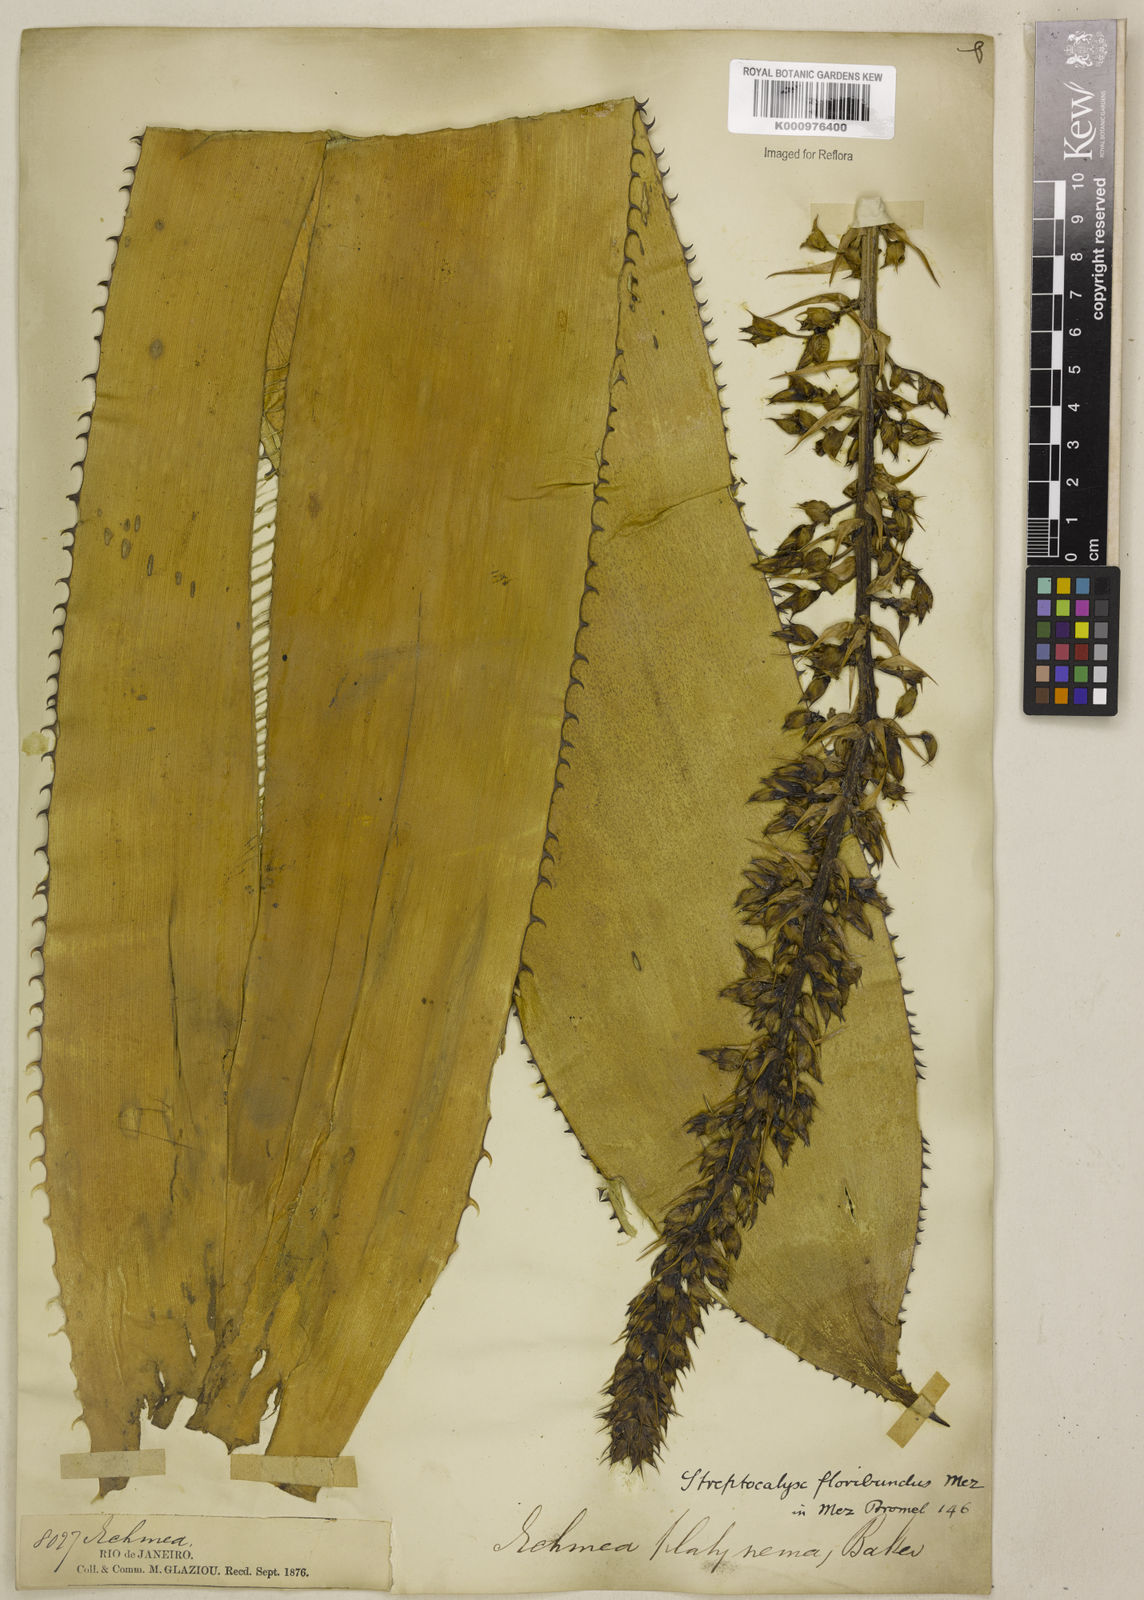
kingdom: Plantae
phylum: Tracheophyta
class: Liliopsida
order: Poales
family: Bromeliaceae
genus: Aechmea
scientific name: Aechmea floribunda
